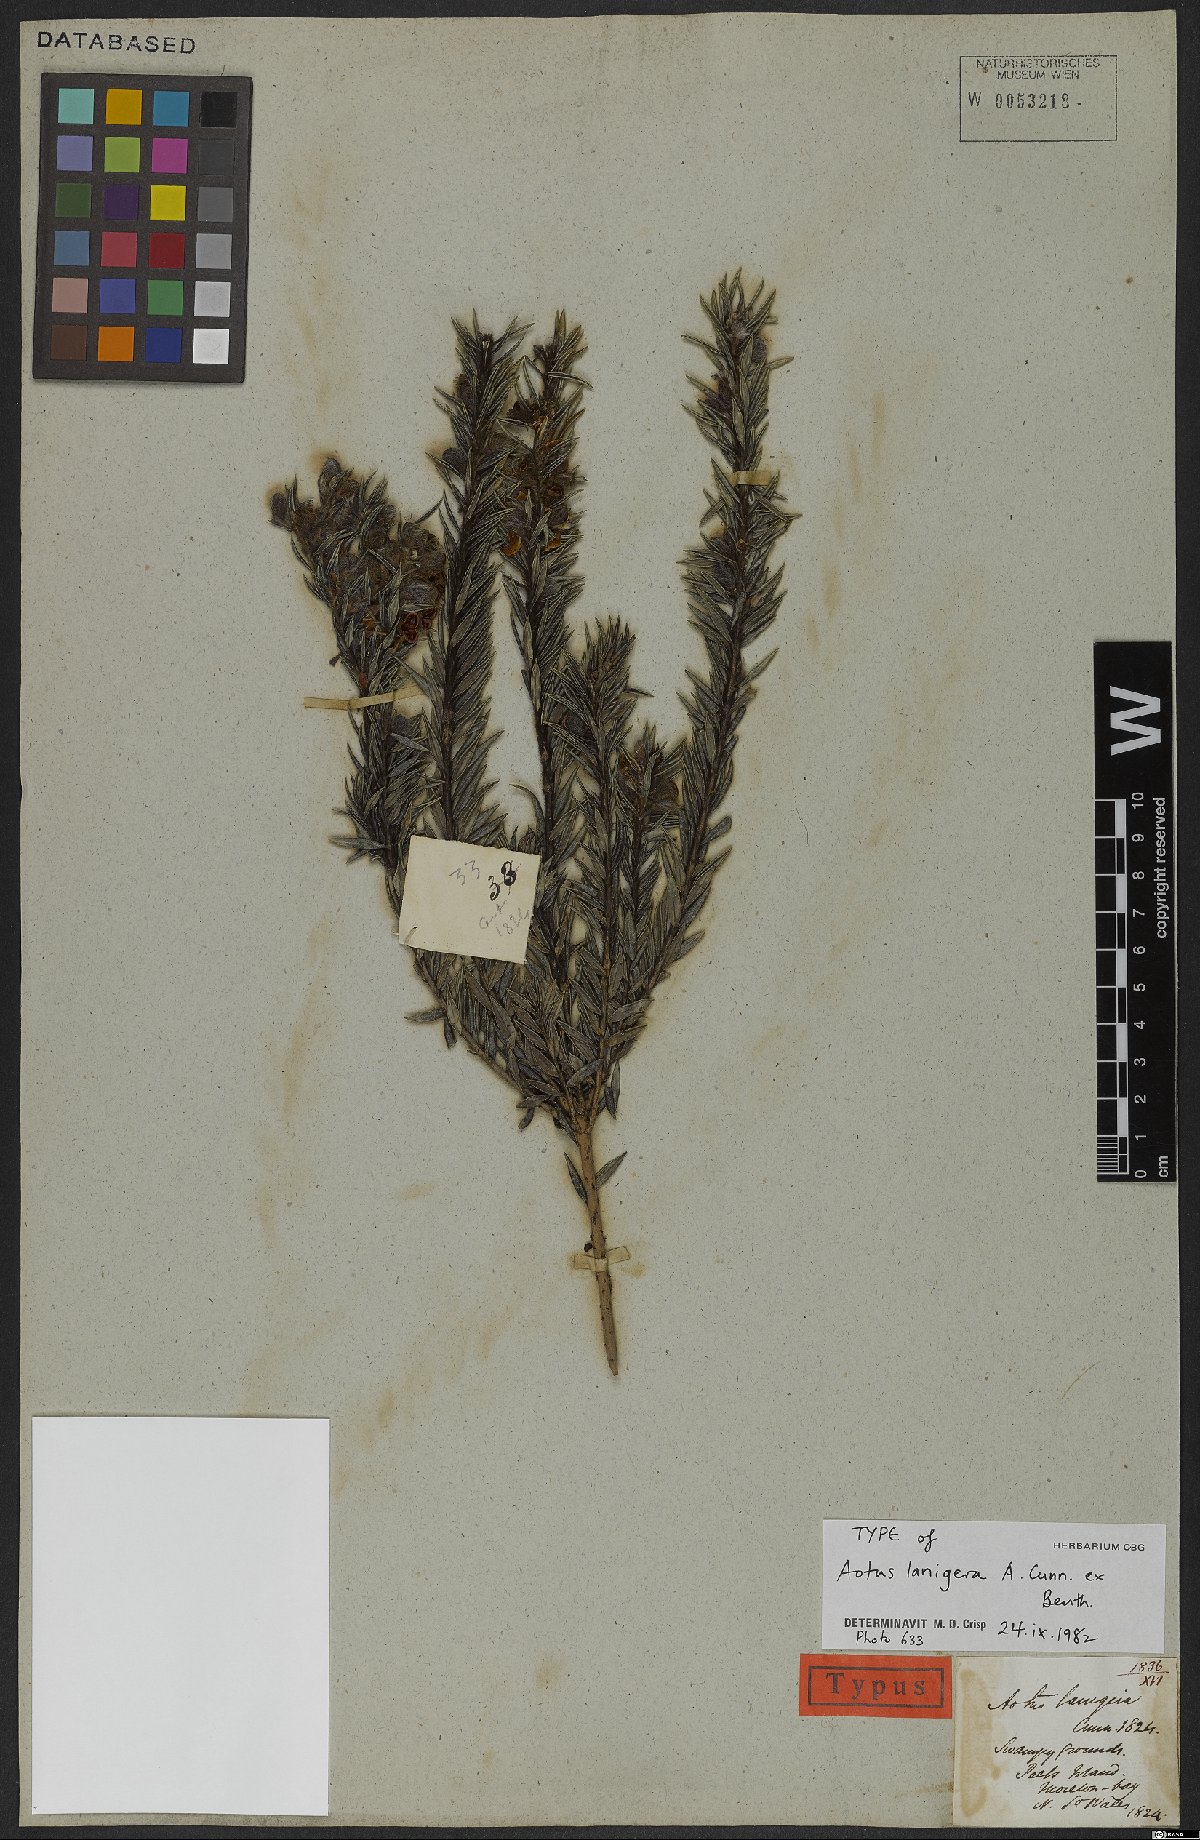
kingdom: Plantae
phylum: Tracheophyta
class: Magnoliopsida
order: Fabales
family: Fabaceae
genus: Aotus
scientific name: Aotus lanigera
